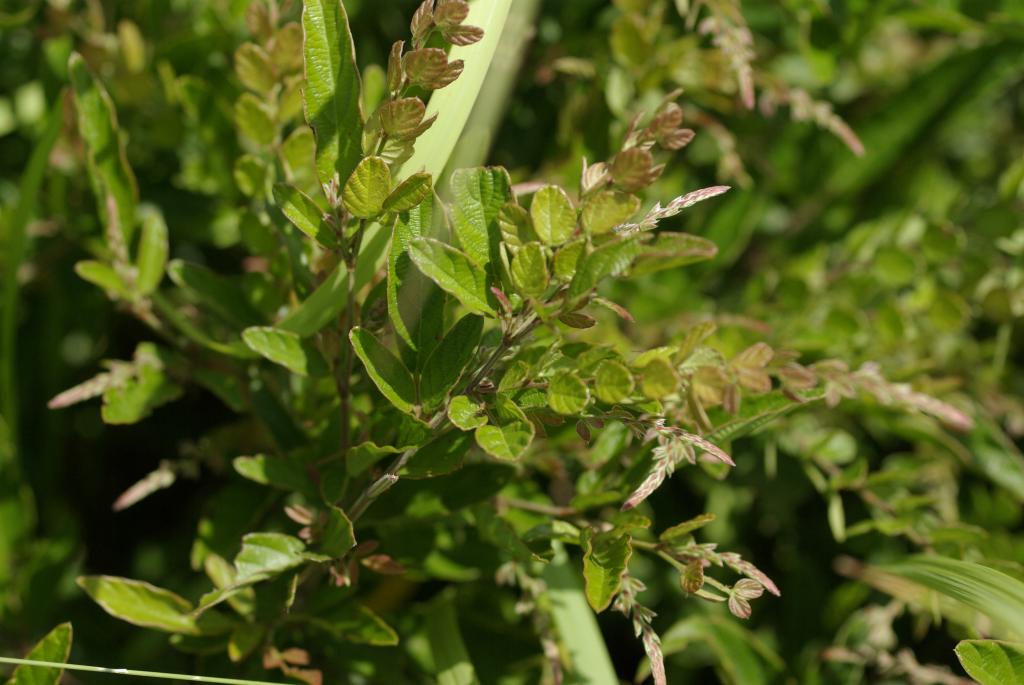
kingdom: Plantae
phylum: Tracheophyta
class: Magnoliopsida
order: Fabales
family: Fabaceae
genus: Phyllodium
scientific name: Phyllodium pulchellum
